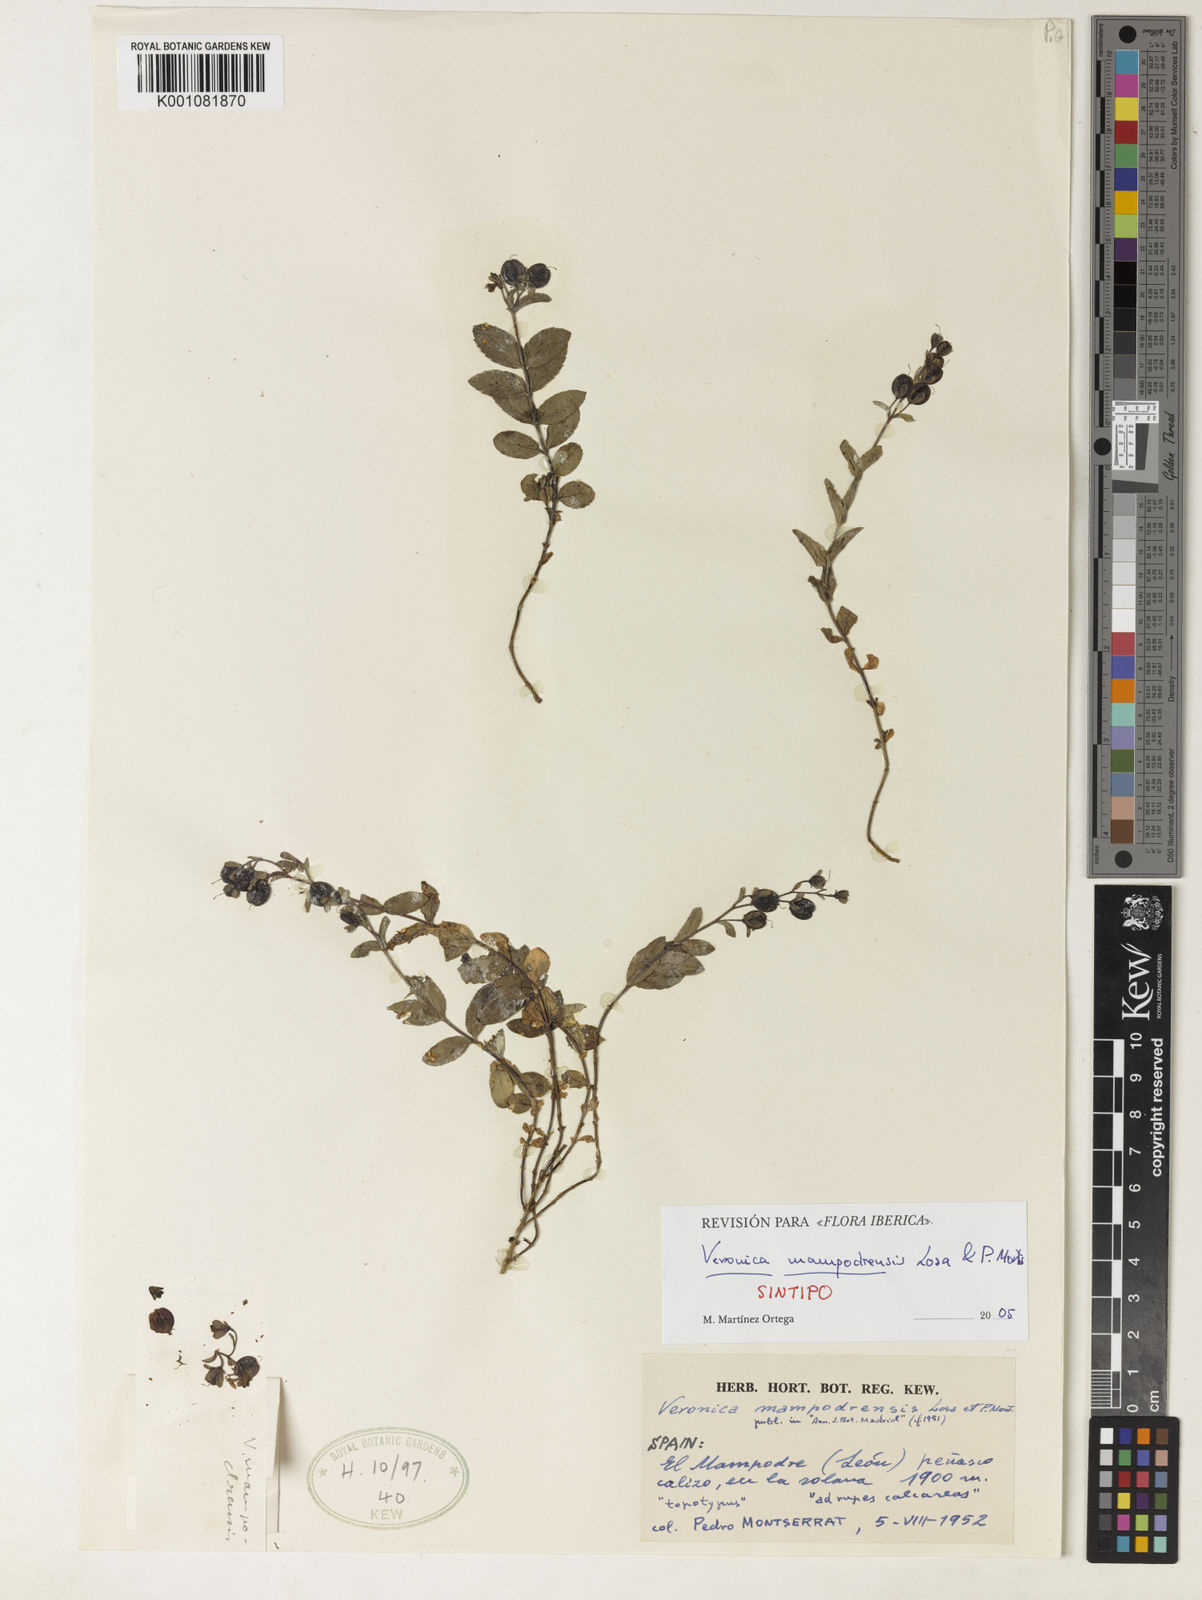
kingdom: Plantae
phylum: Tracheophyta
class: Magnoliopsida
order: Lamiales
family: Plantaginaceae
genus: Veronica
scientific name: Veronica mampodrensis
